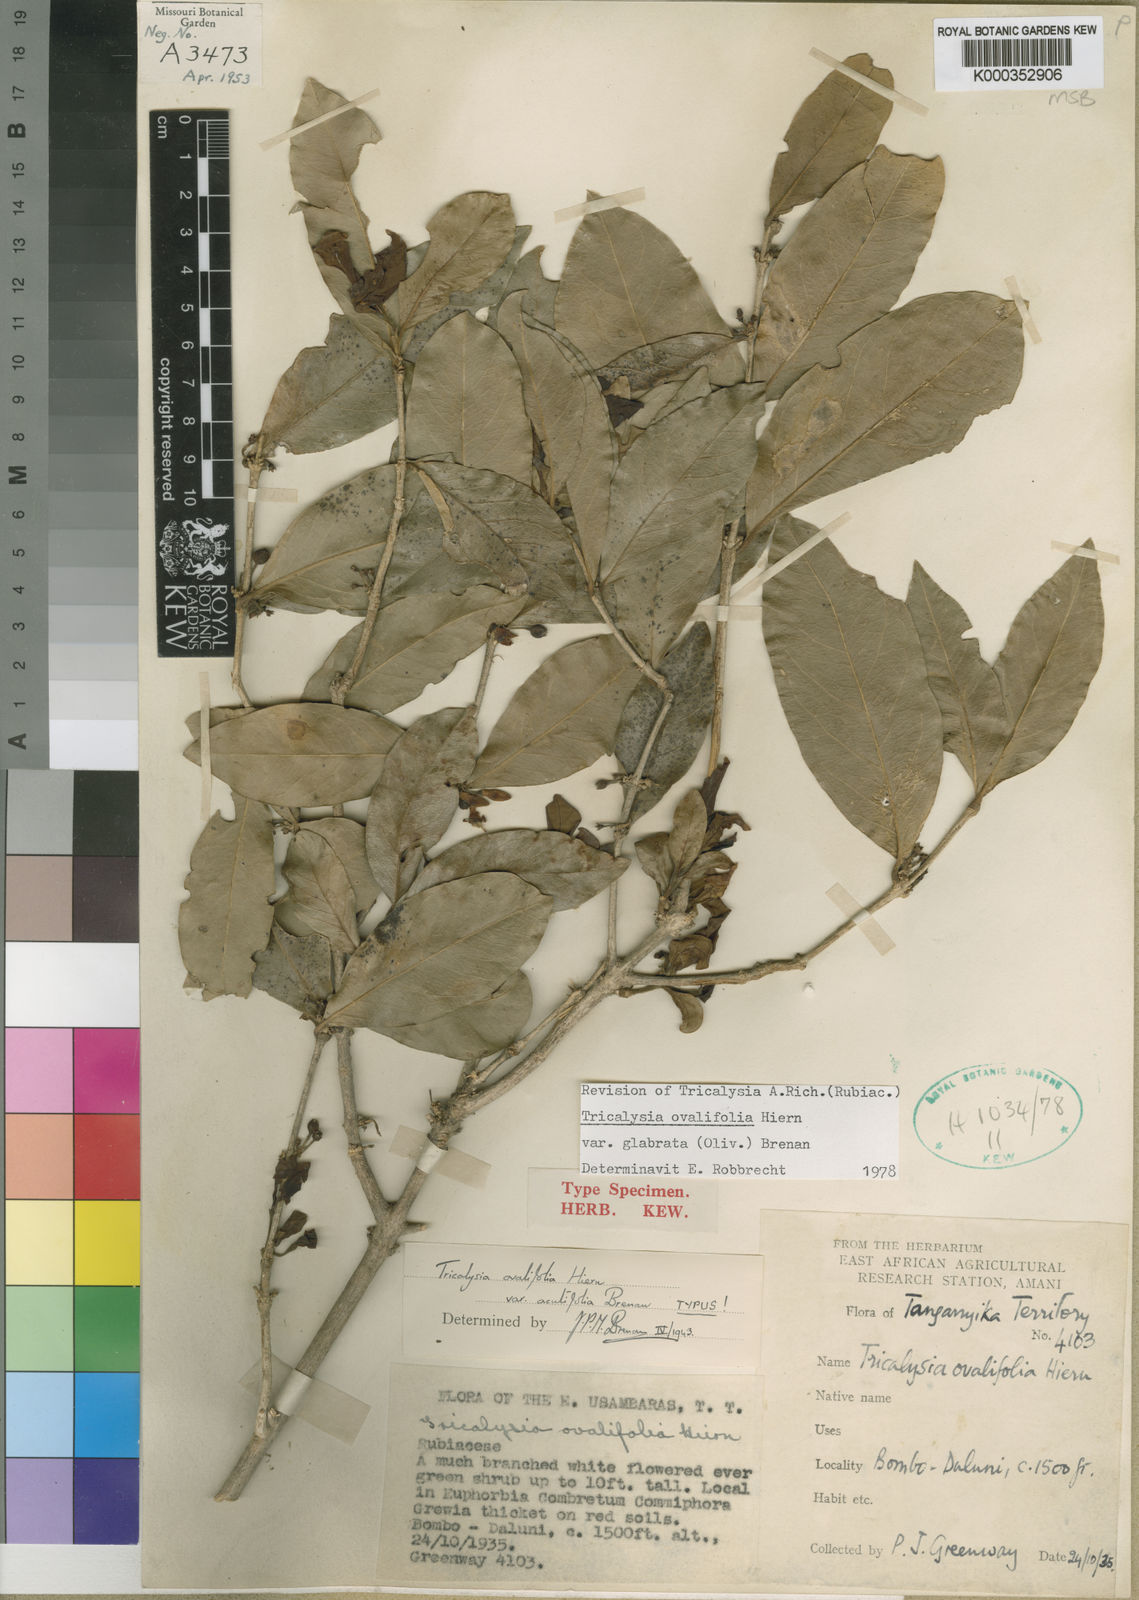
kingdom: Plantae
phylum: Tracheophyta
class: Magnoliopsida
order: Gentianales
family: Rubiaceae
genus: Empogona
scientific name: Empogona ovalifolia
